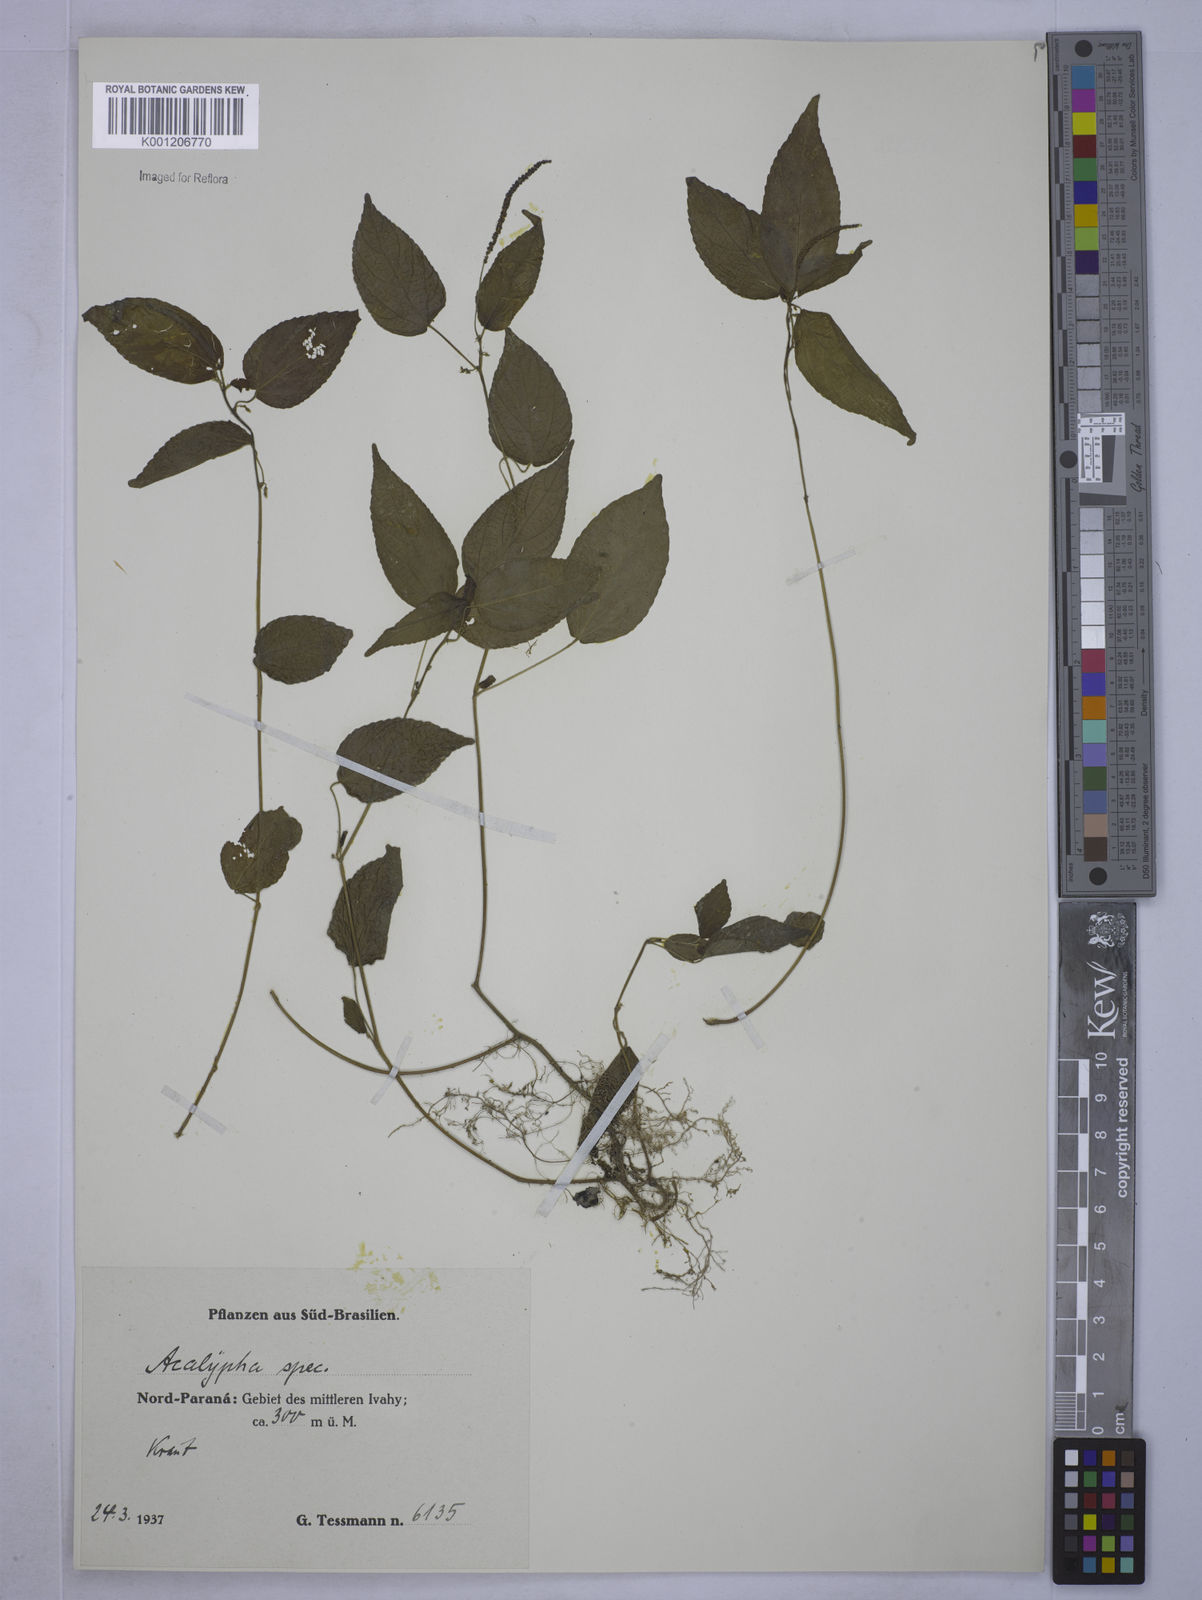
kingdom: Plantae
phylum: Tracheophyta
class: Magnoliopsida
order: Malpighiales
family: Euphorbiaceae
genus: Acalypha
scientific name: Acalypha
